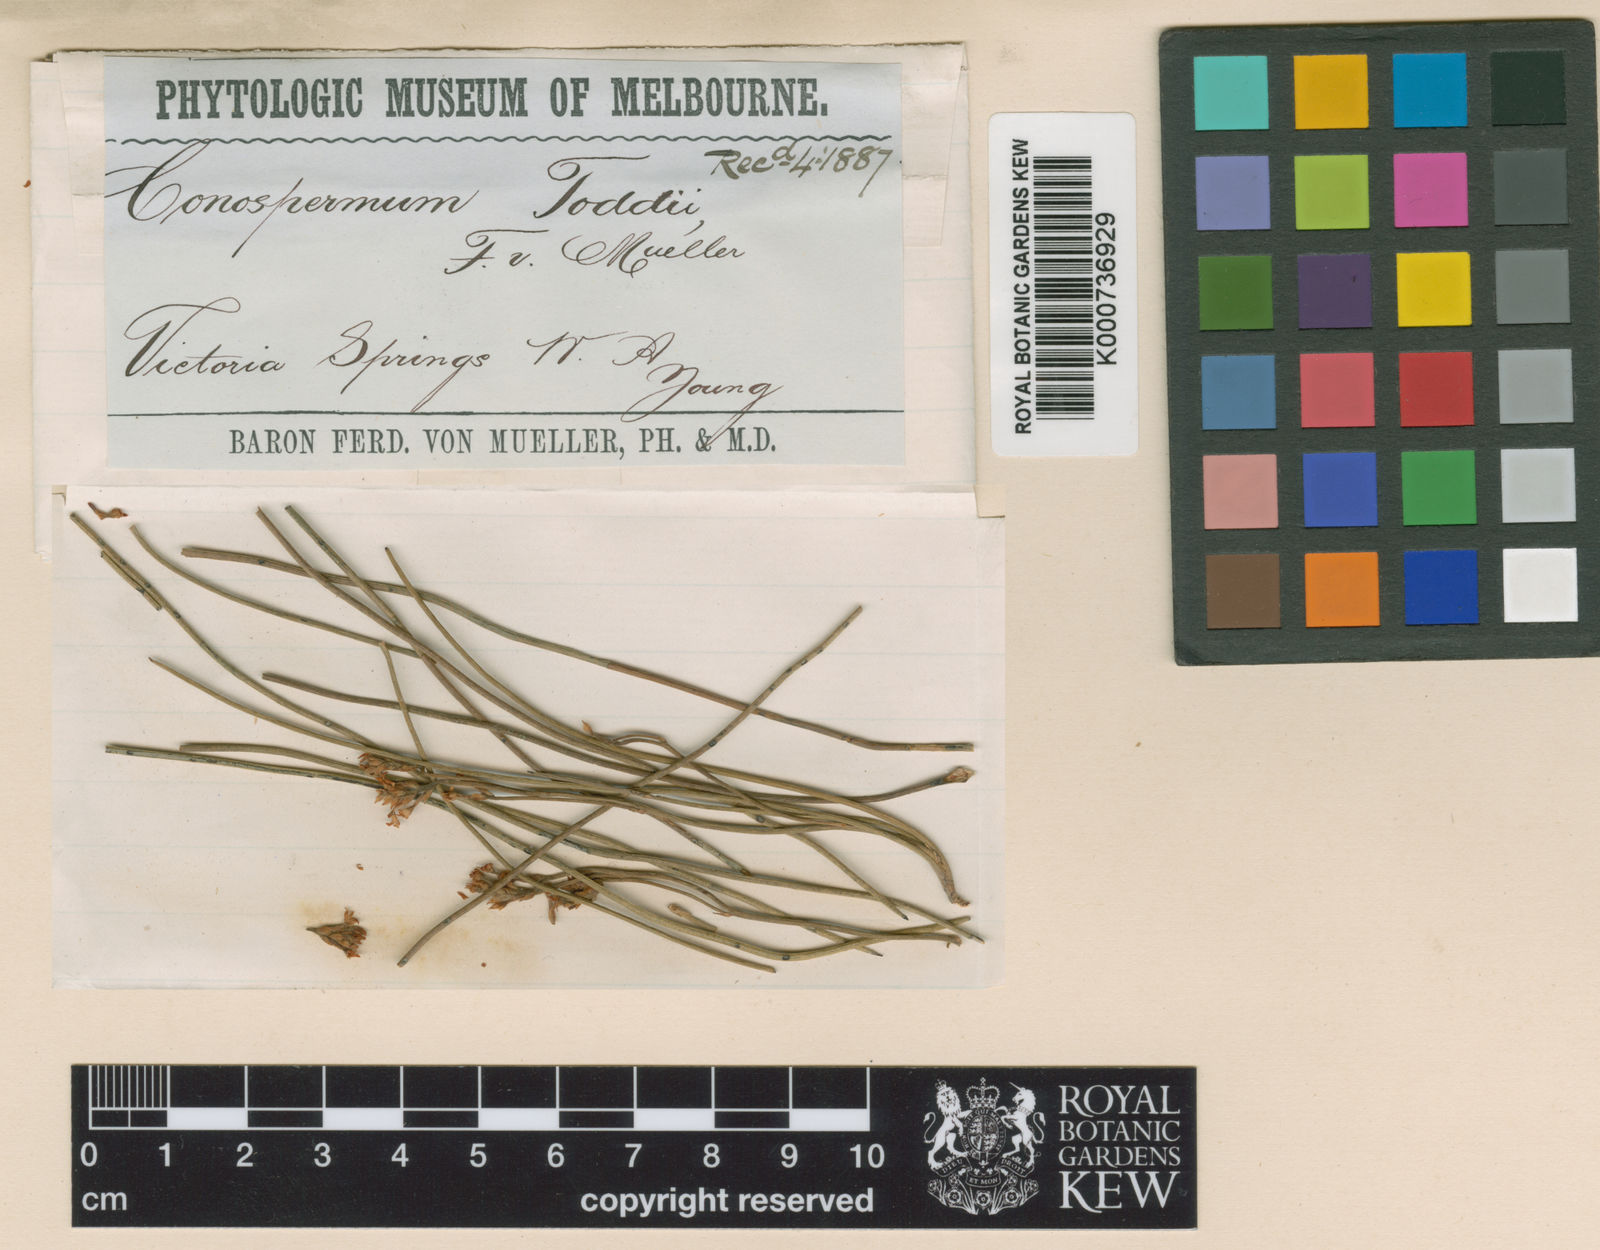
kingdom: Plantae
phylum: Tracheophyta
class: Magnoliopsida
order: Proteales
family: Proteaceae
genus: Conospermum
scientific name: Conospermum toddii
